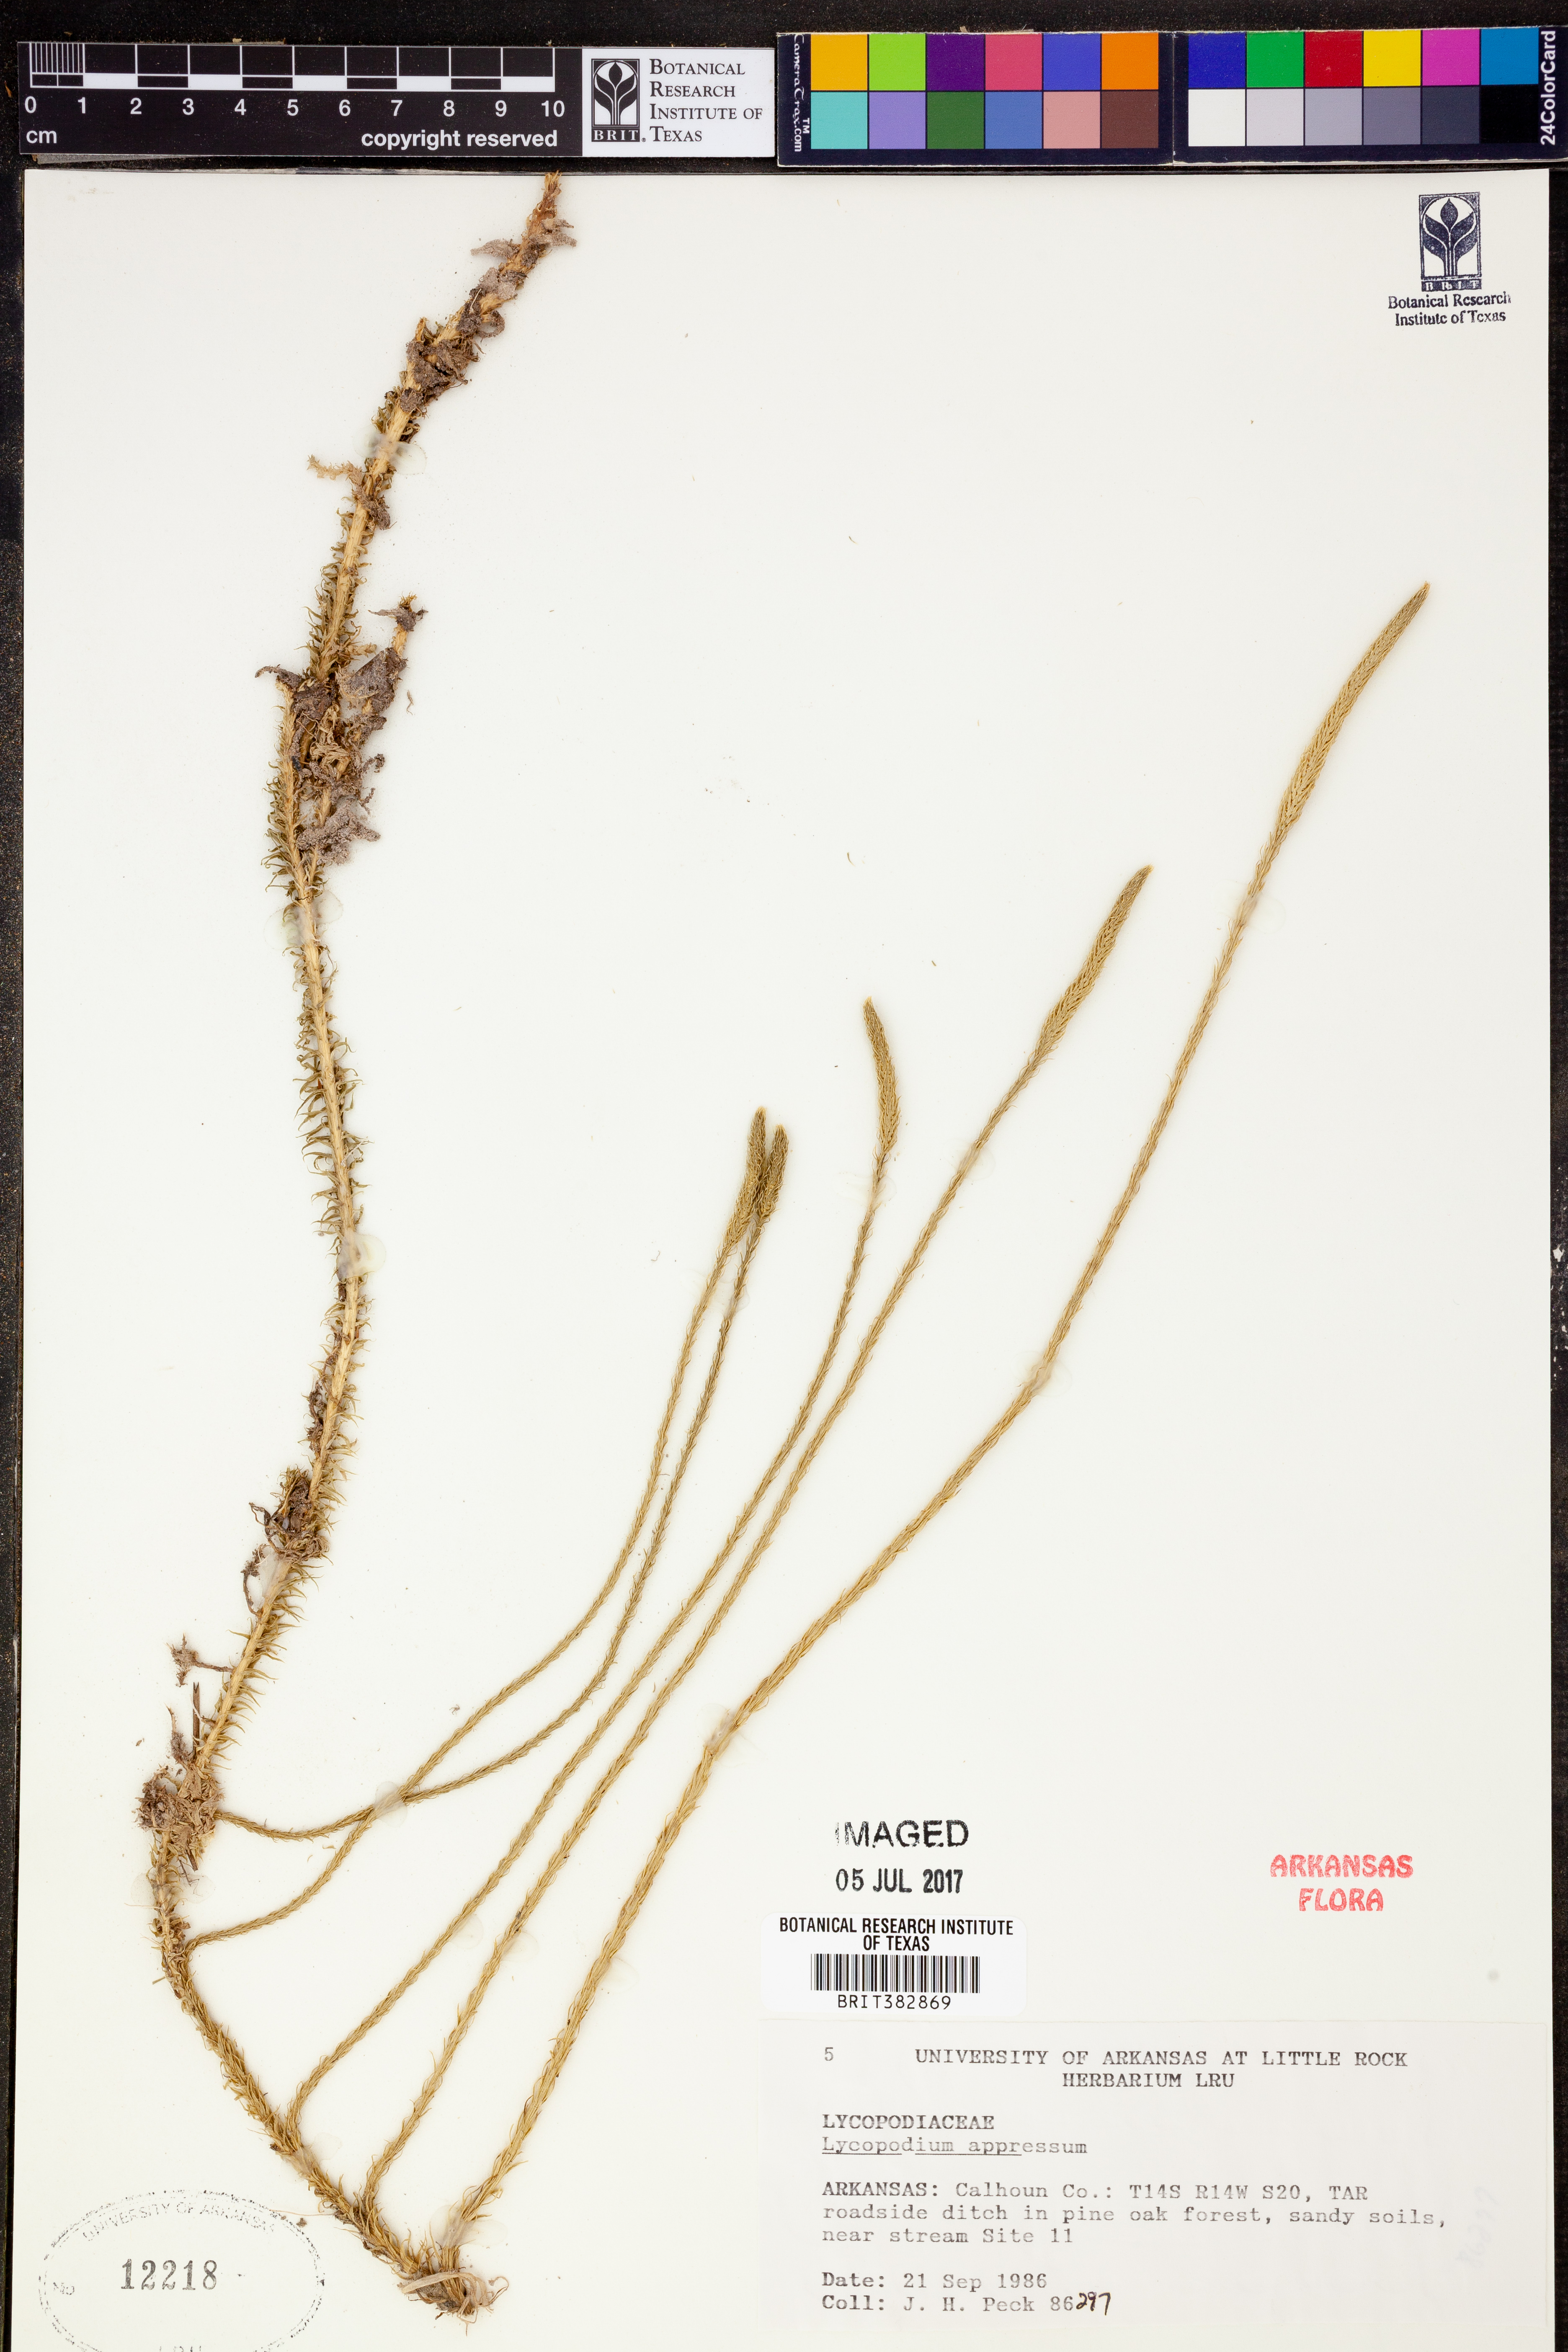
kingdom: Plantae
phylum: Tracheophyta
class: Lycopodiopsida
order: Lycopodiales
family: Lycopodiaceae
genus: Lycopodiella
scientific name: Lycopodiella appressa
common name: Appressed bog clubmoss
